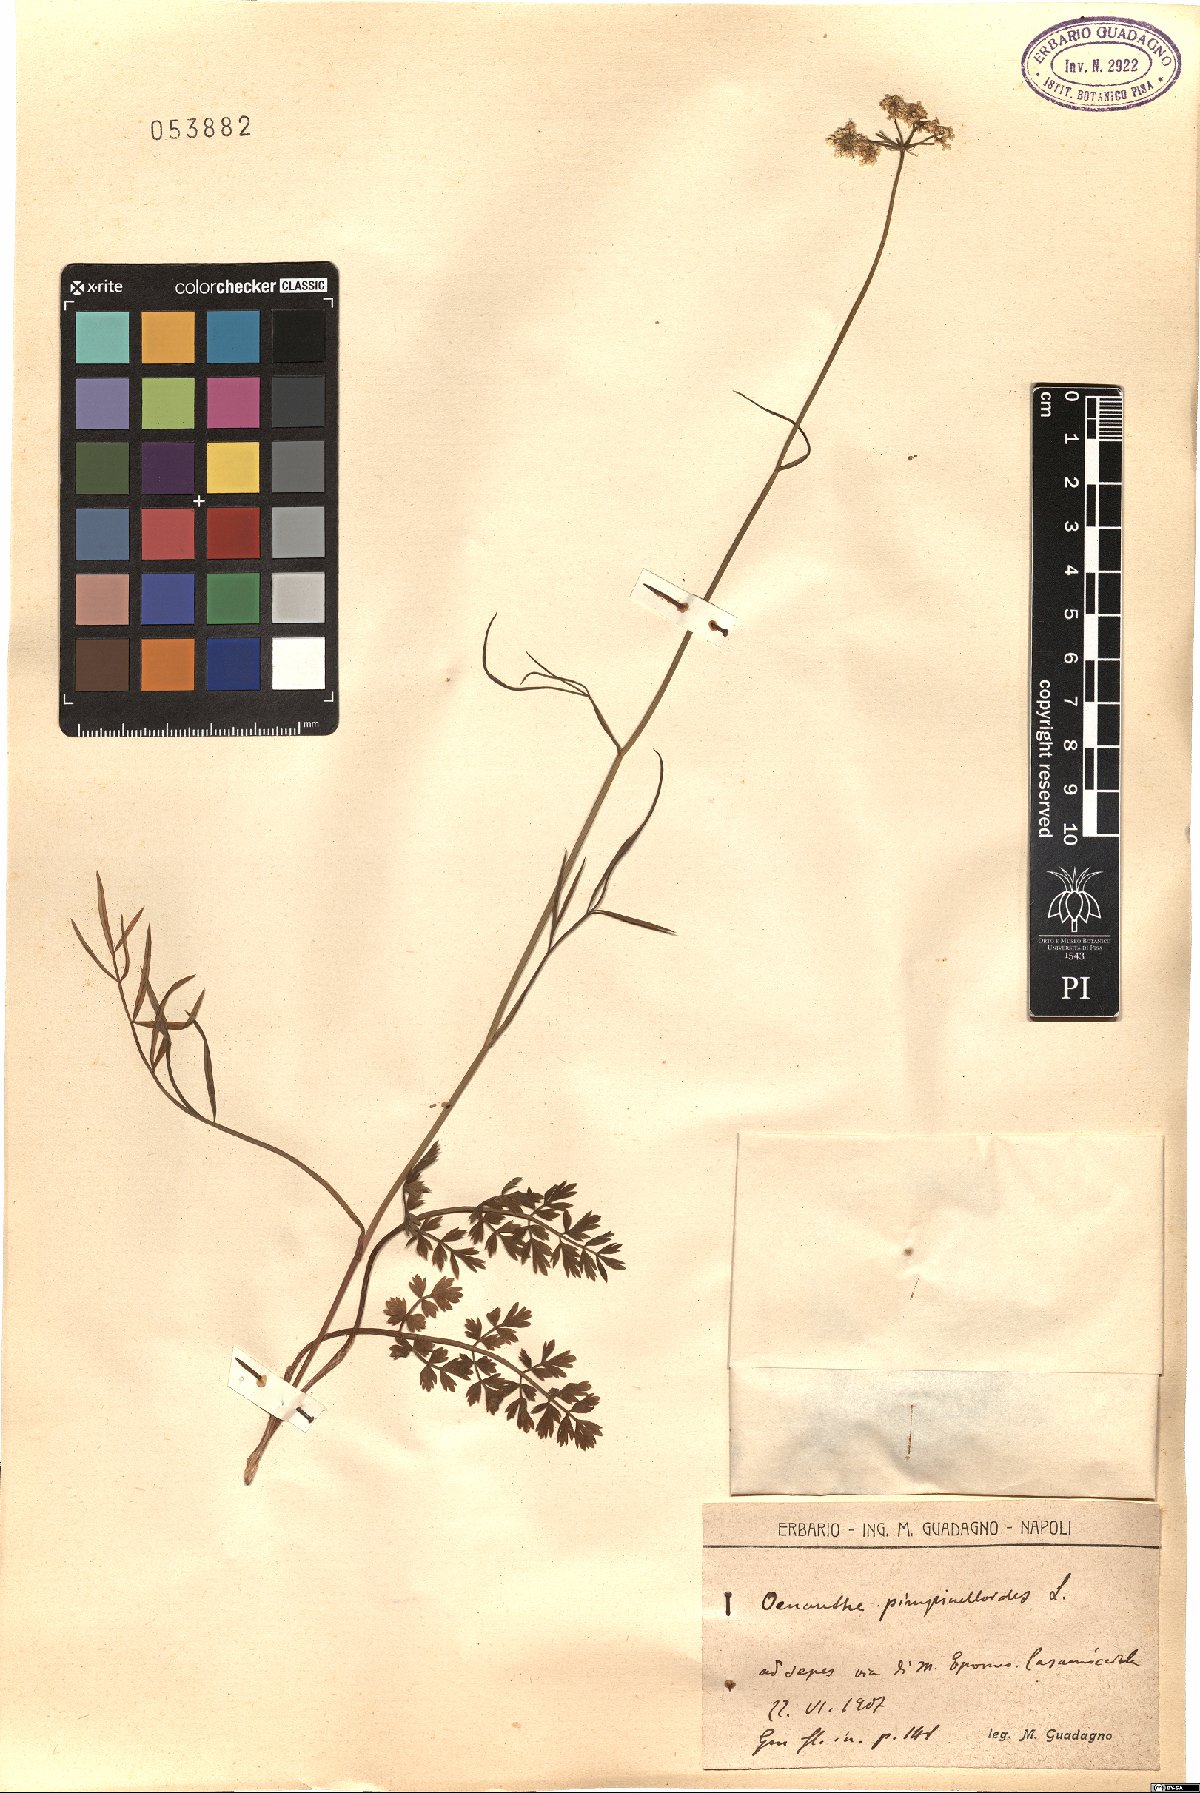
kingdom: Plantae
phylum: Tracheophyta
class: Magnoliopsida
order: Apiales
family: Apiaceae
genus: Oenanthe
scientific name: Oenanthe pimpinelloides
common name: Corky-fruited water-dropwort
